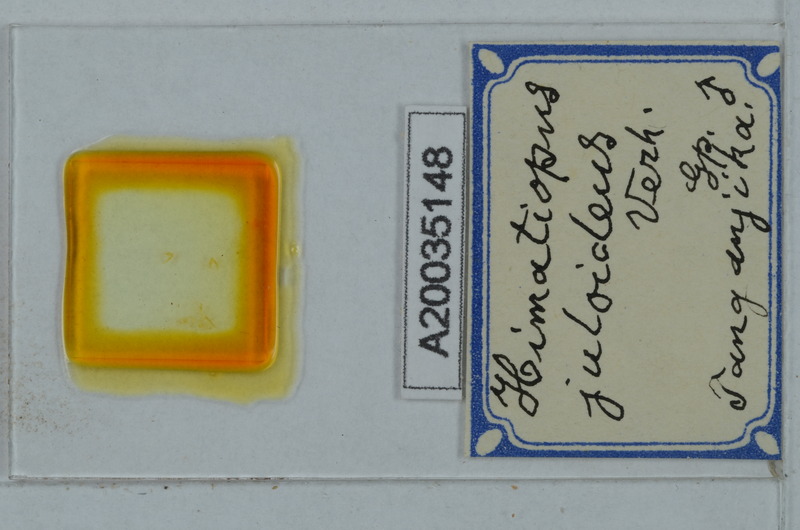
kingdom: Animalia
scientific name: Animalia
